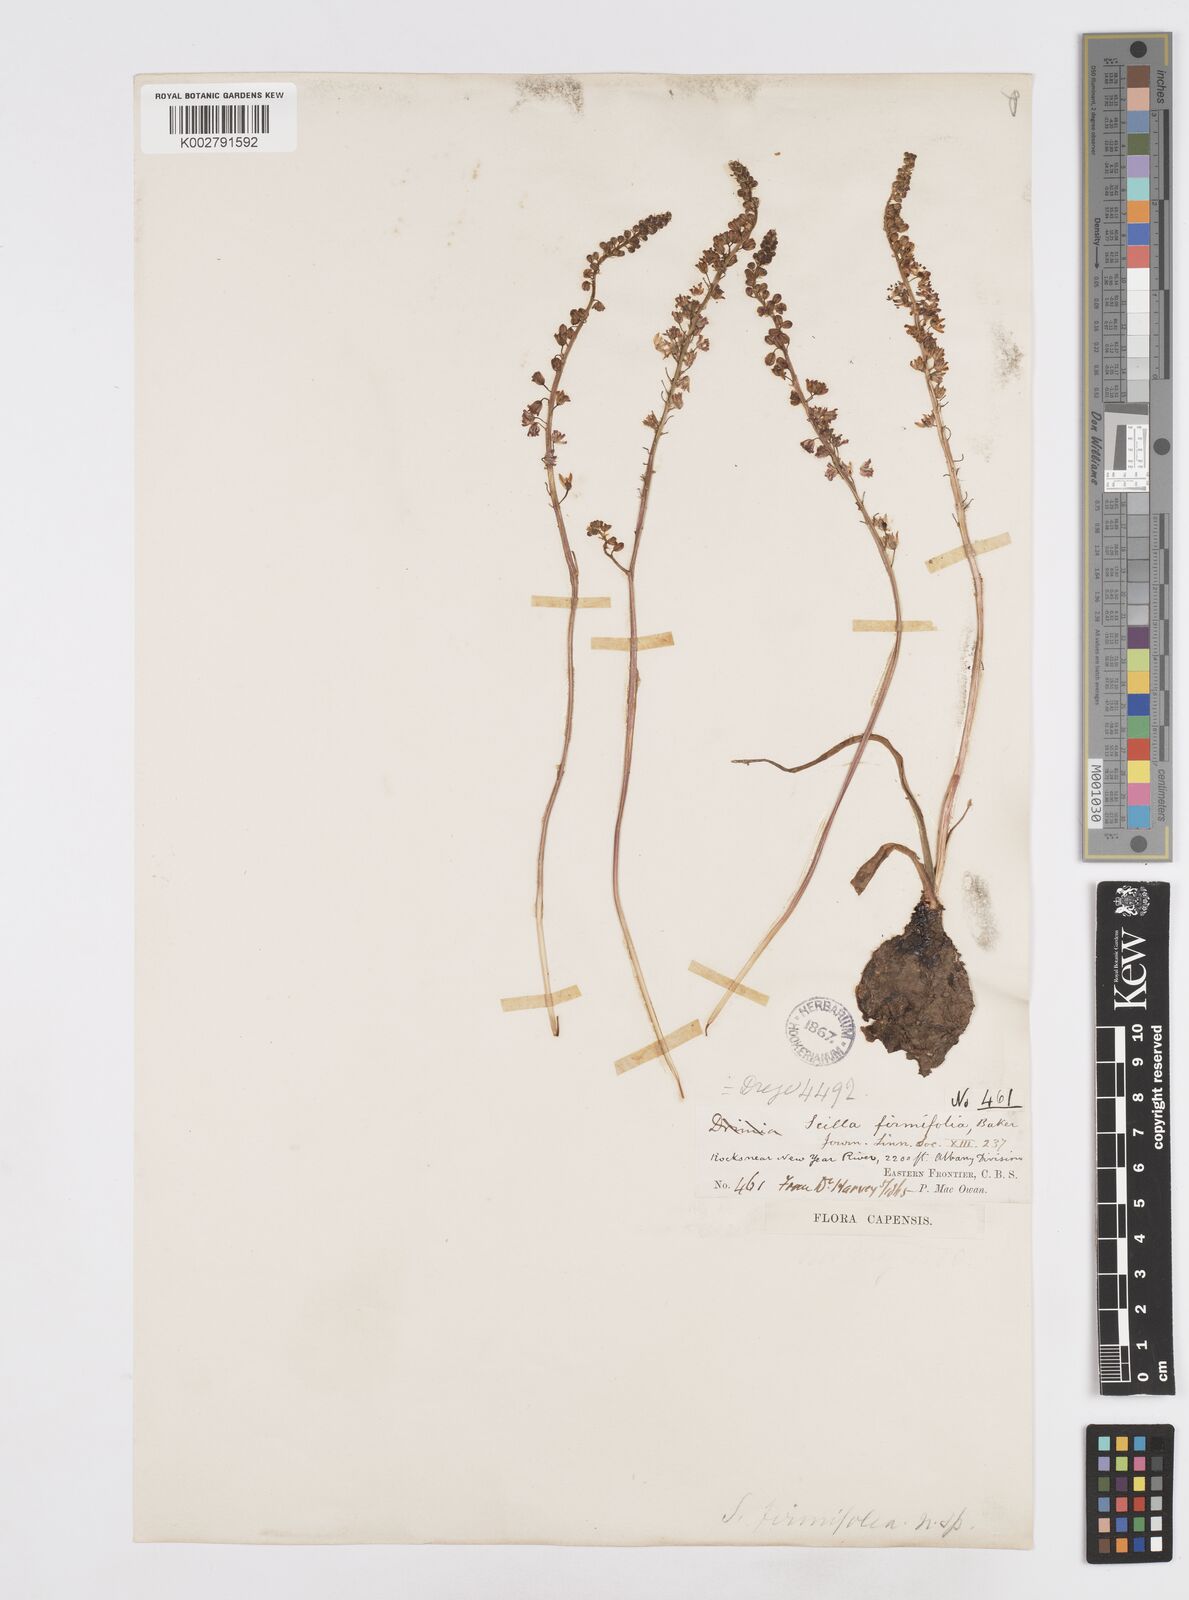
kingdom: Plantae
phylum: Tracheophyta
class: Liliopsida
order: Asparagales
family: Asparagaceae
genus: Pseudoprospero
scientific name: Pseudoprospero firmifolium
